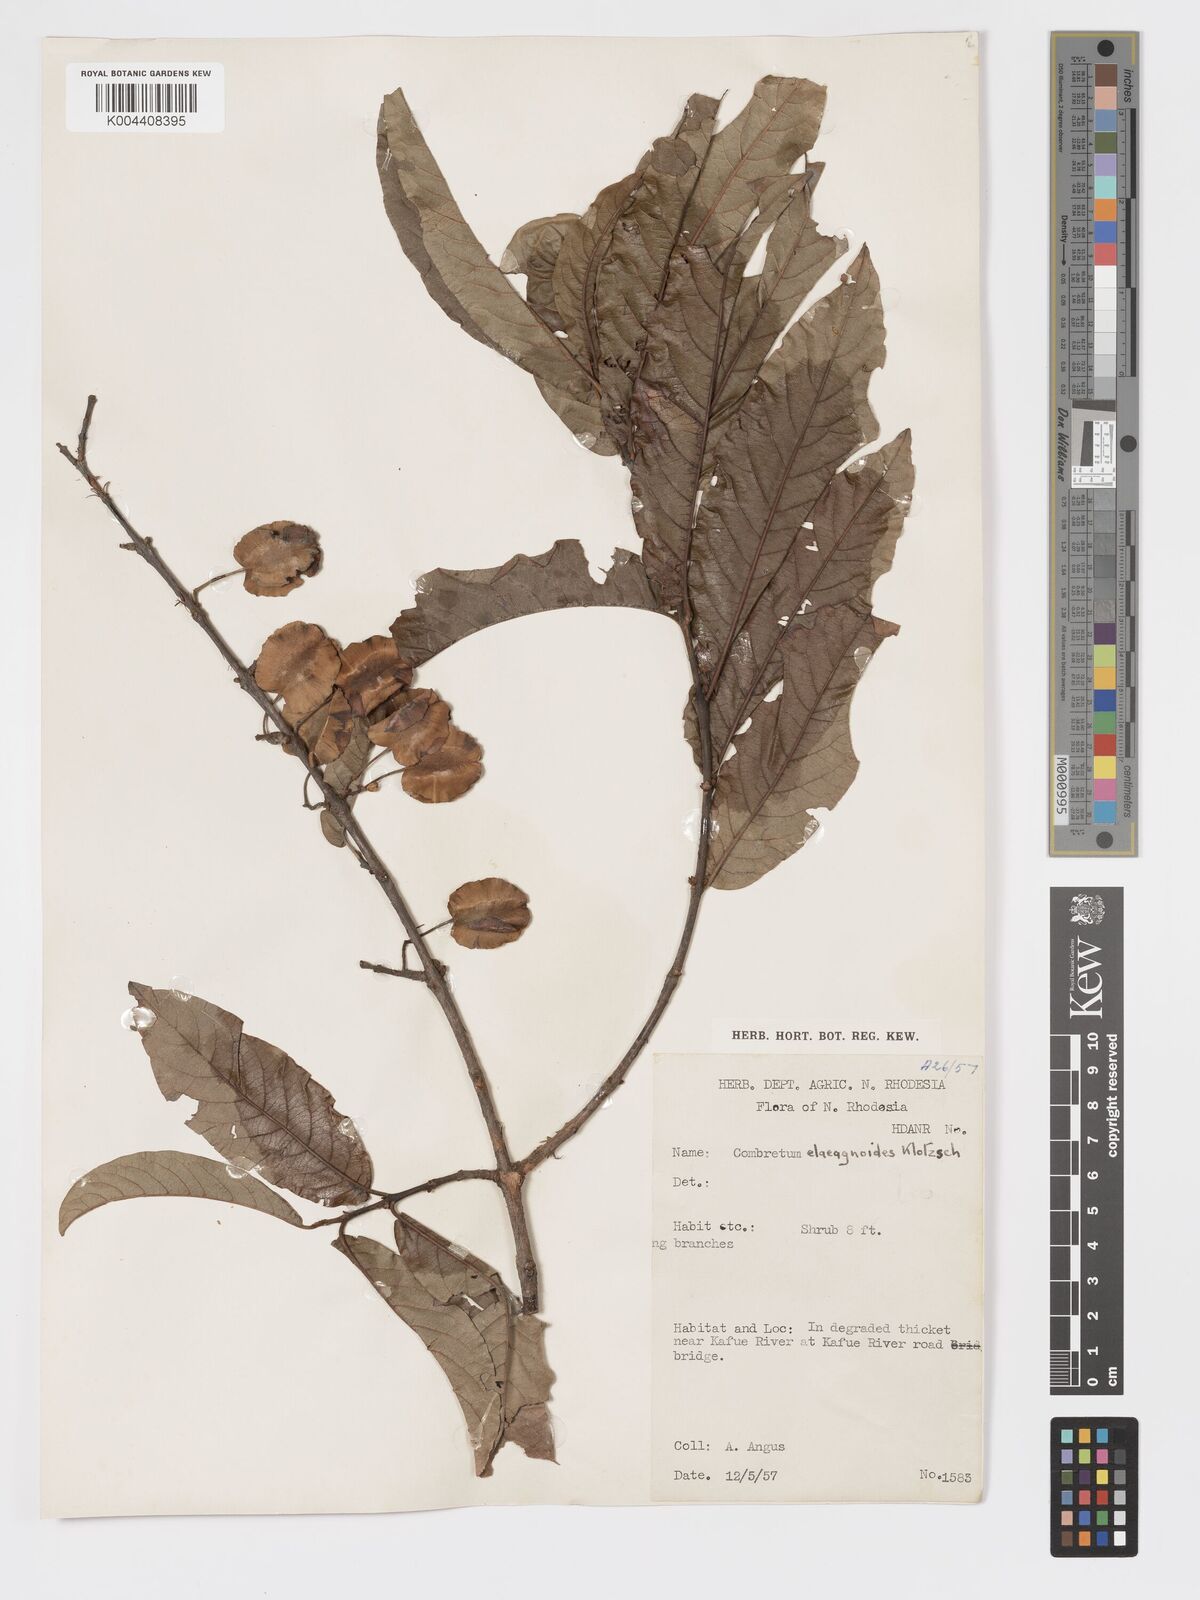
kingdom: Plantae
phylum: Tracheophyta
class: Magnoliopsida
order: Myrtales
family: Combretaceae
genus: Combretum
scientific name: Combretum elaeagnoides
